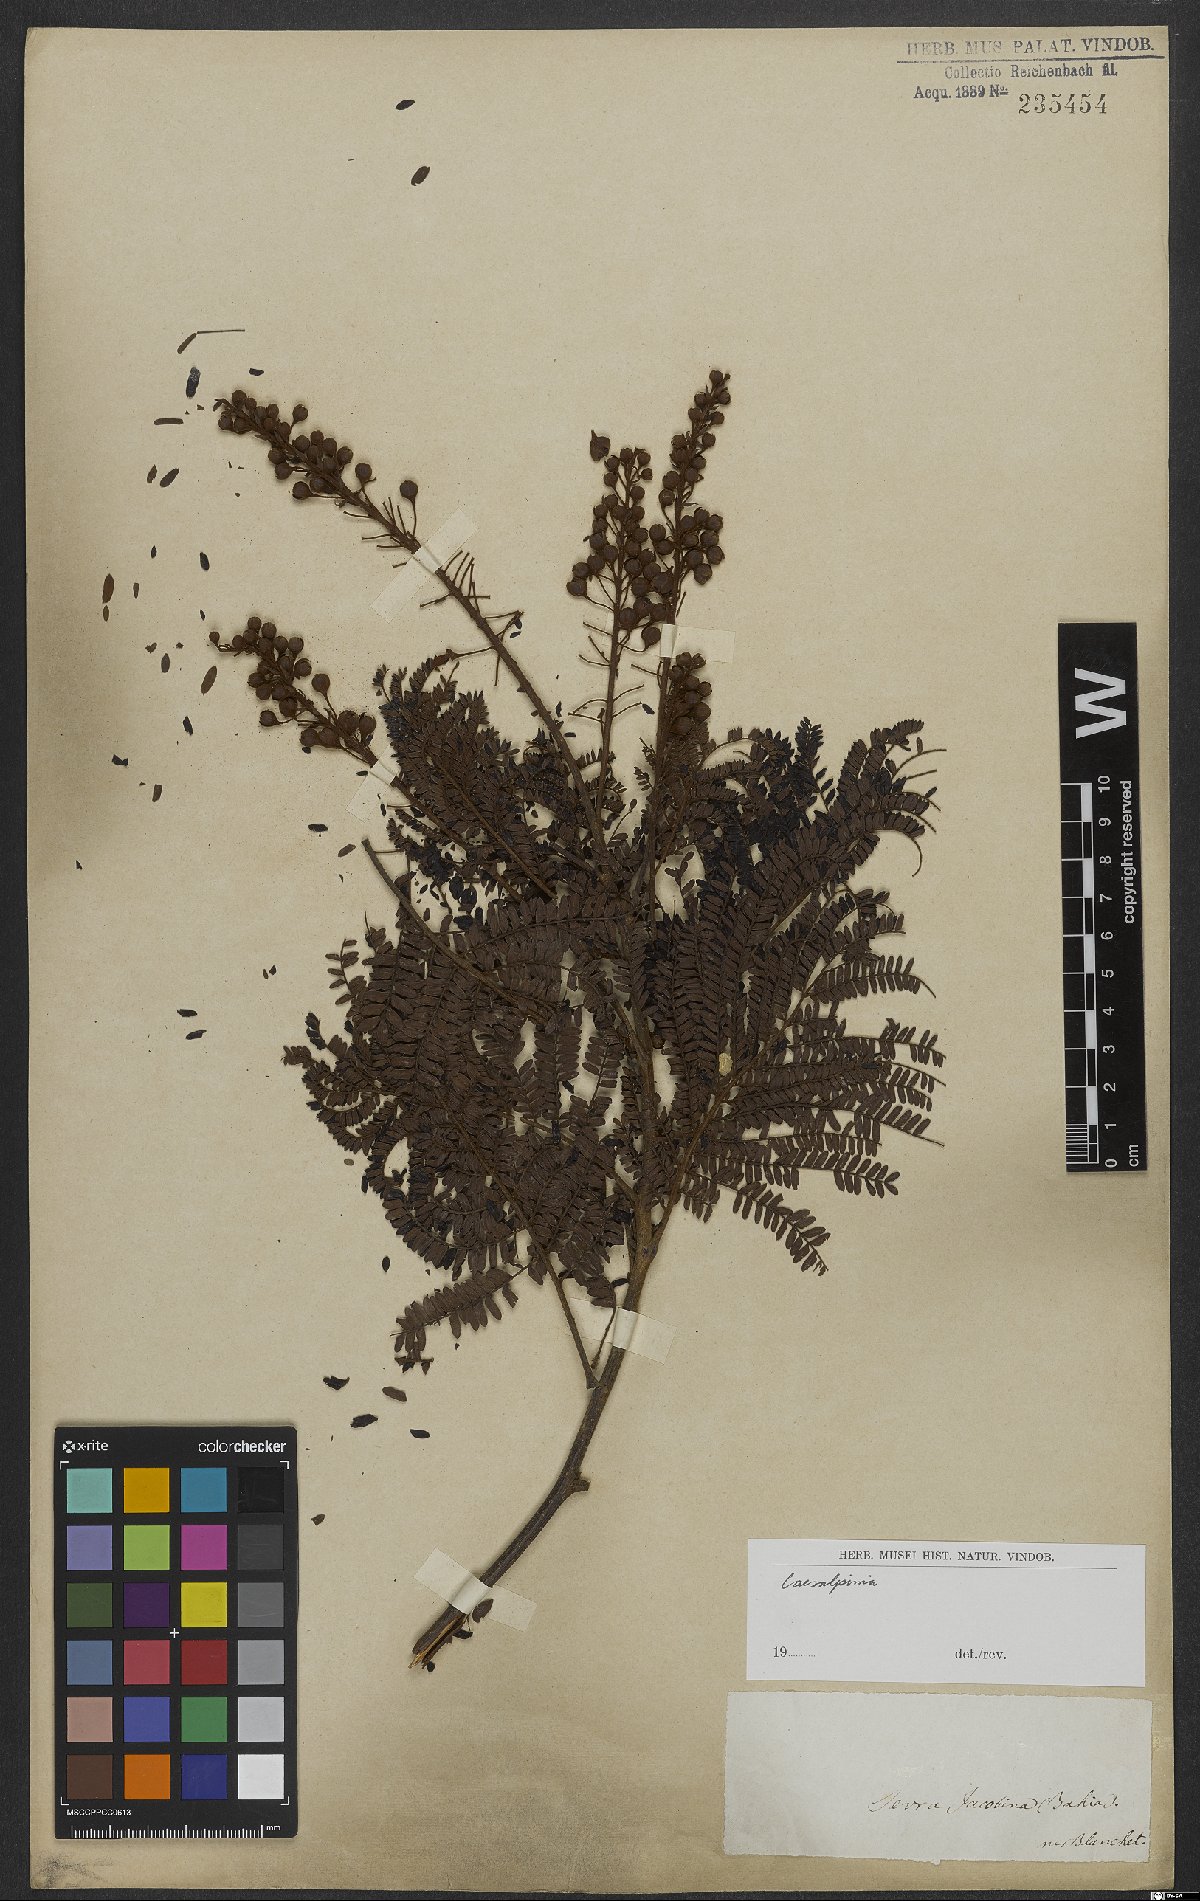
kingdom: Plantae
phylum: Tracheophyta
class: Magnoliopsida
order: Fabales
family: Fabaceae
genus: Caesalpinia
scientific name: Caesalpinia
